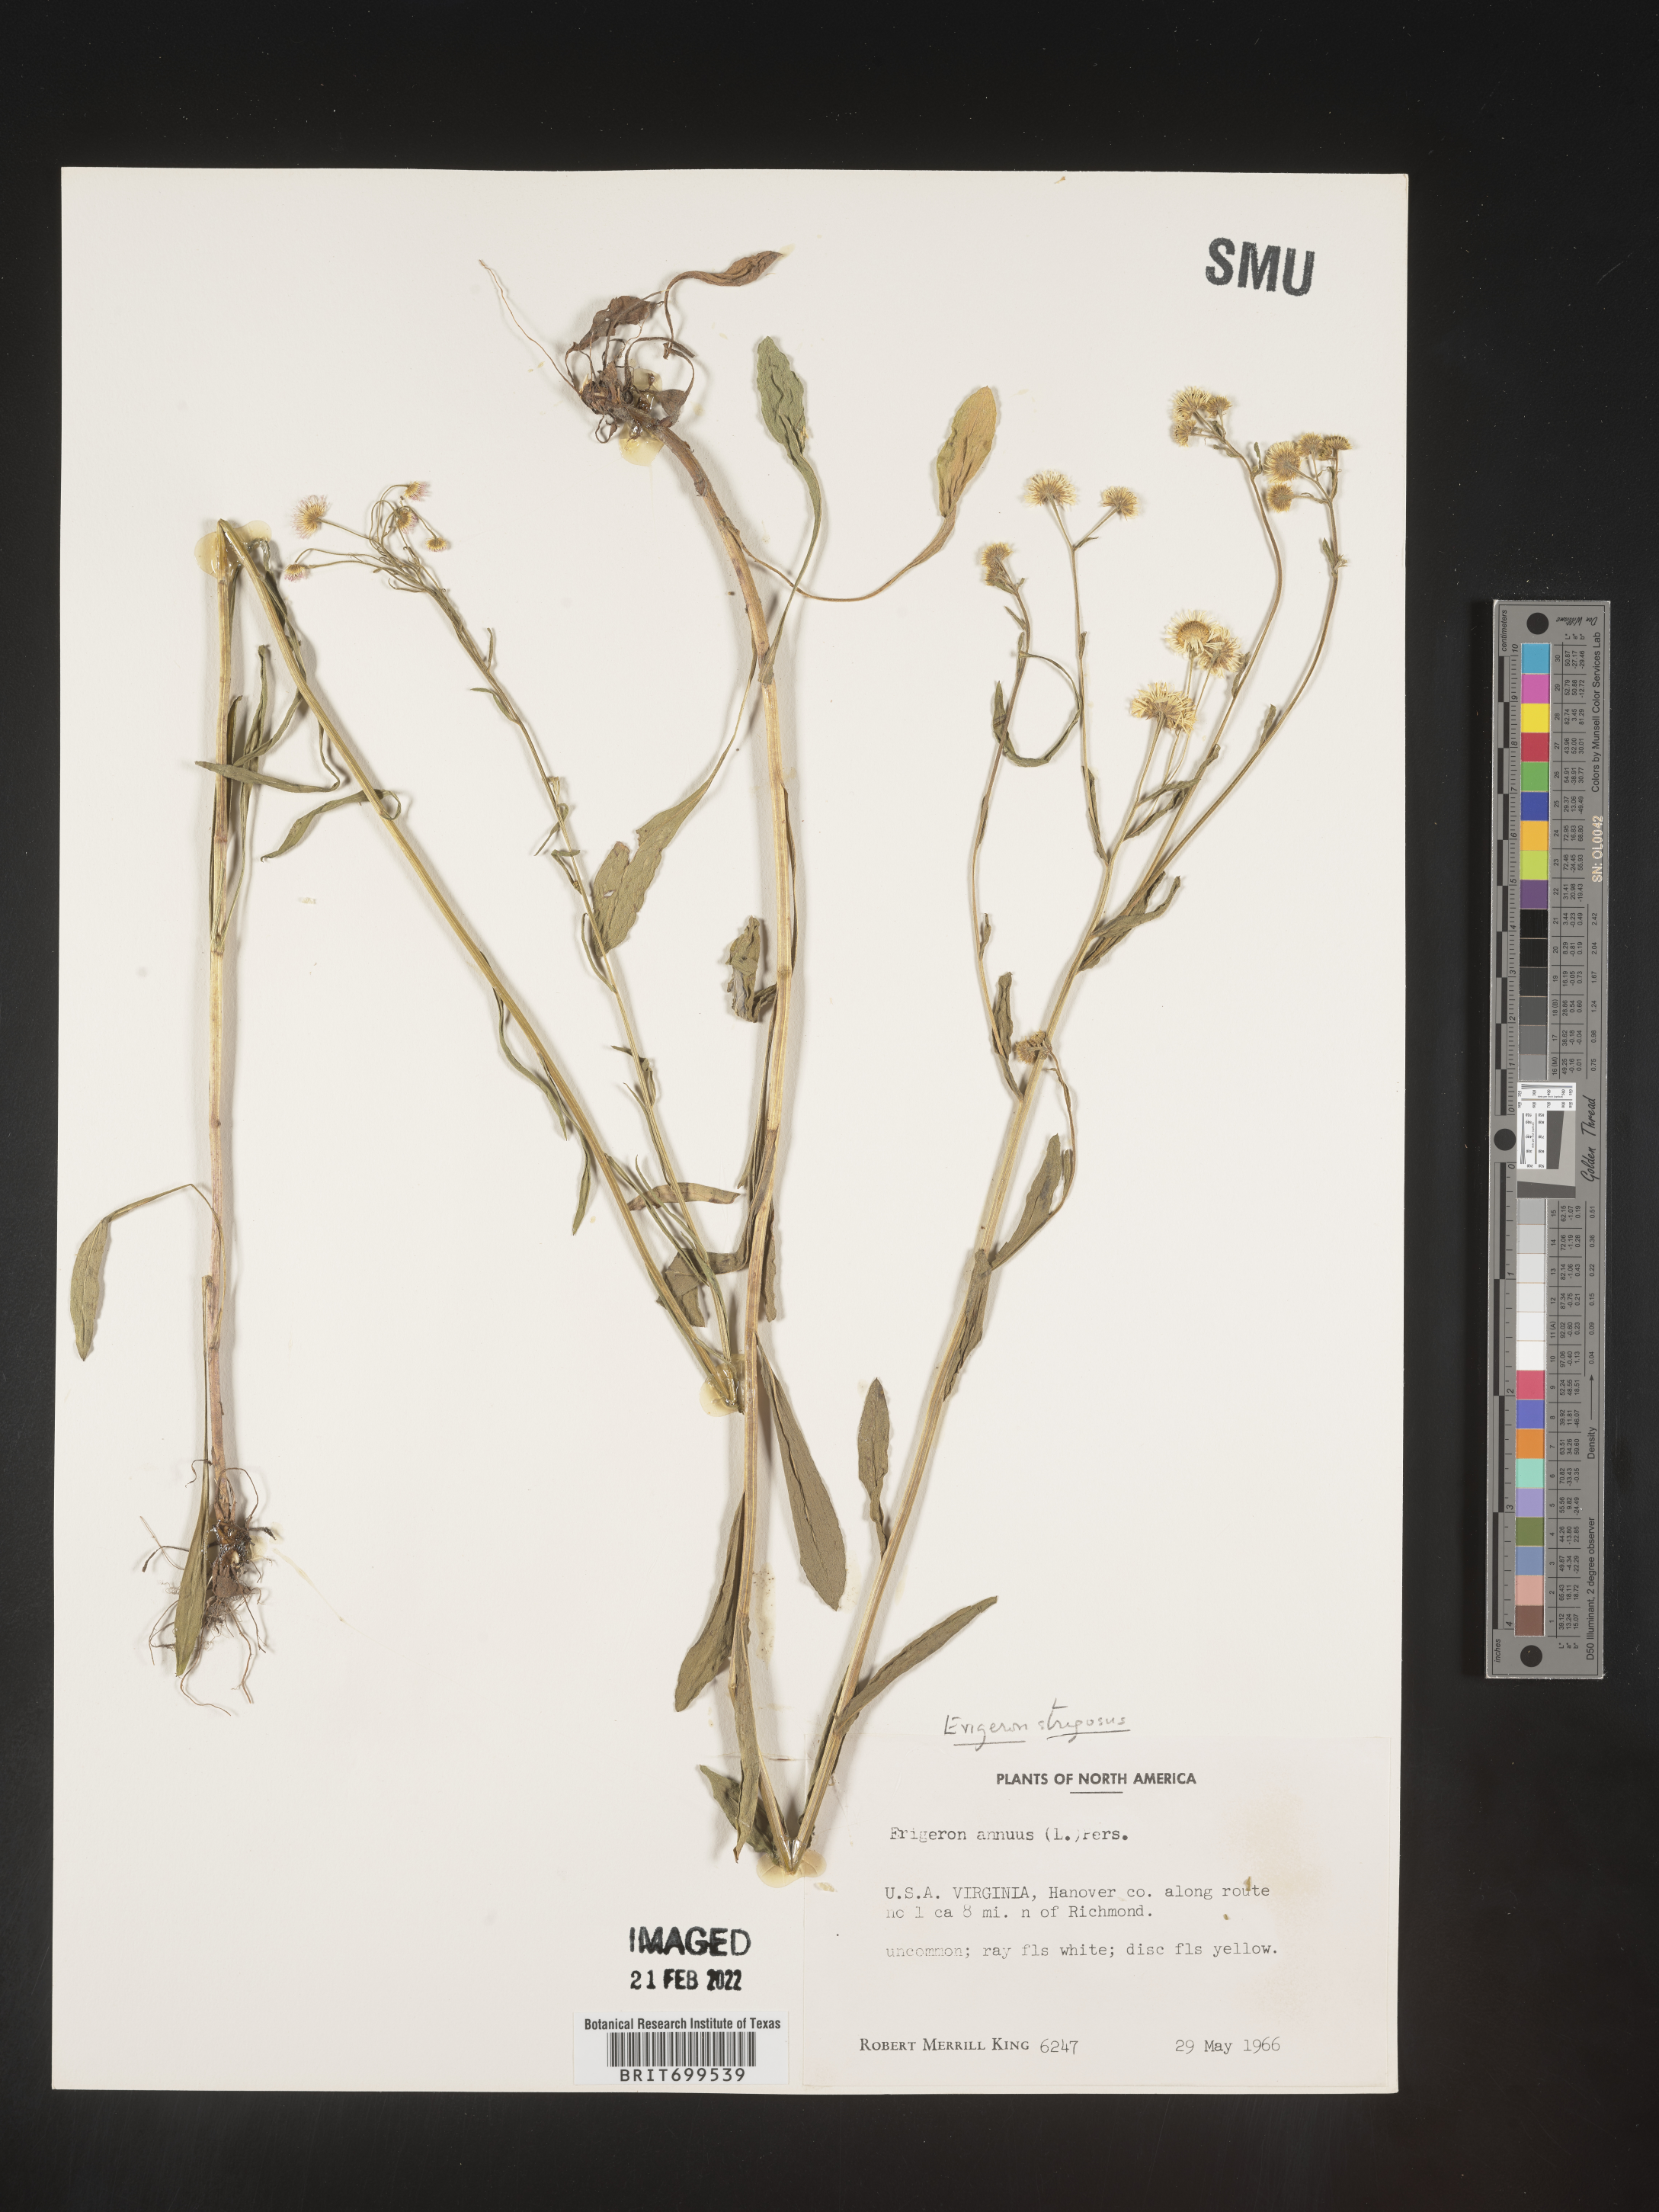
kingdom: Plantae
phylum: Tracheophyta
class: Magnoliopsida
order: Asterales
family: Asteraceae
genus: Erigeron
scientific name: Erigeron strigosus
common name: Common eastern fleabane
